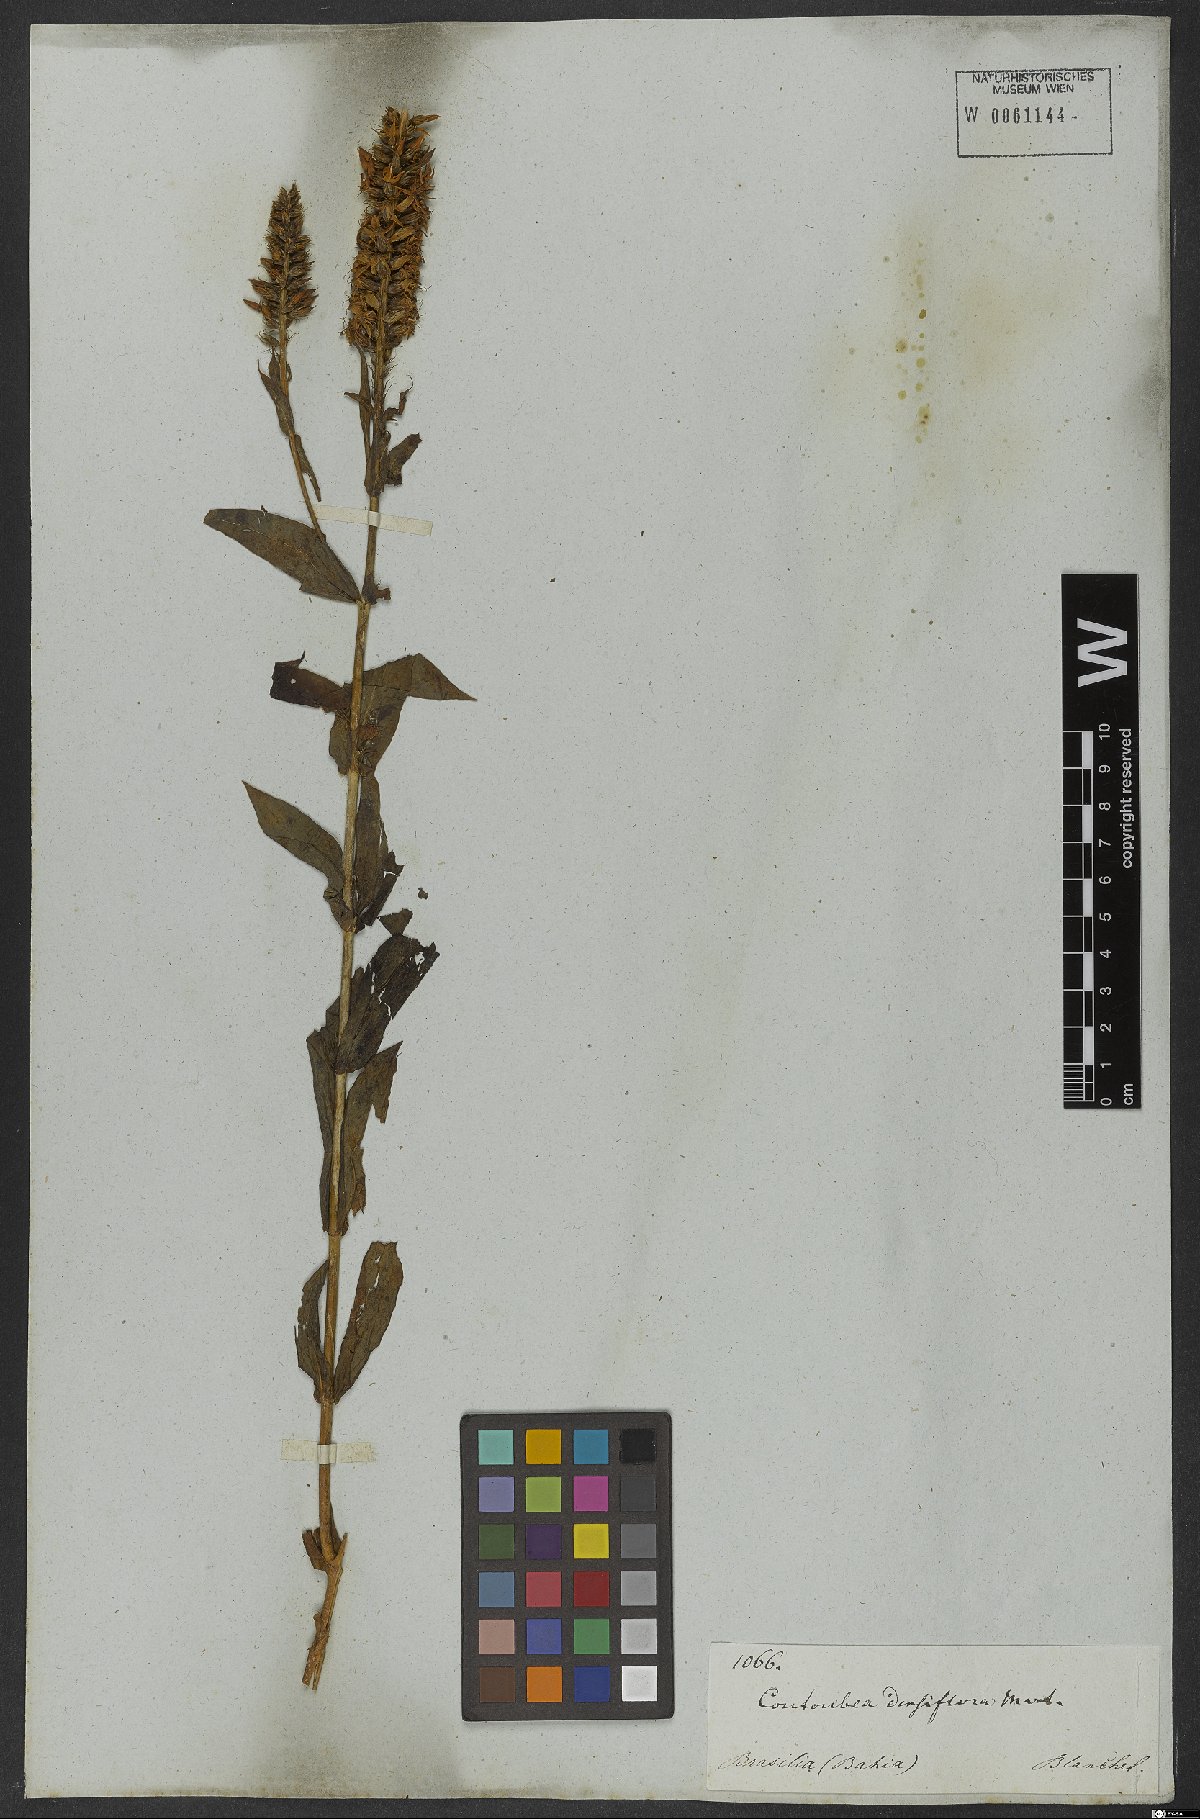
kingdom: Plantae
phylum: Tracheophyta
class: Magnoliopsida
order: Gentianales
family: Gentianaceae
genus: Coutoubea
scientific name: Coutoubea spicata
